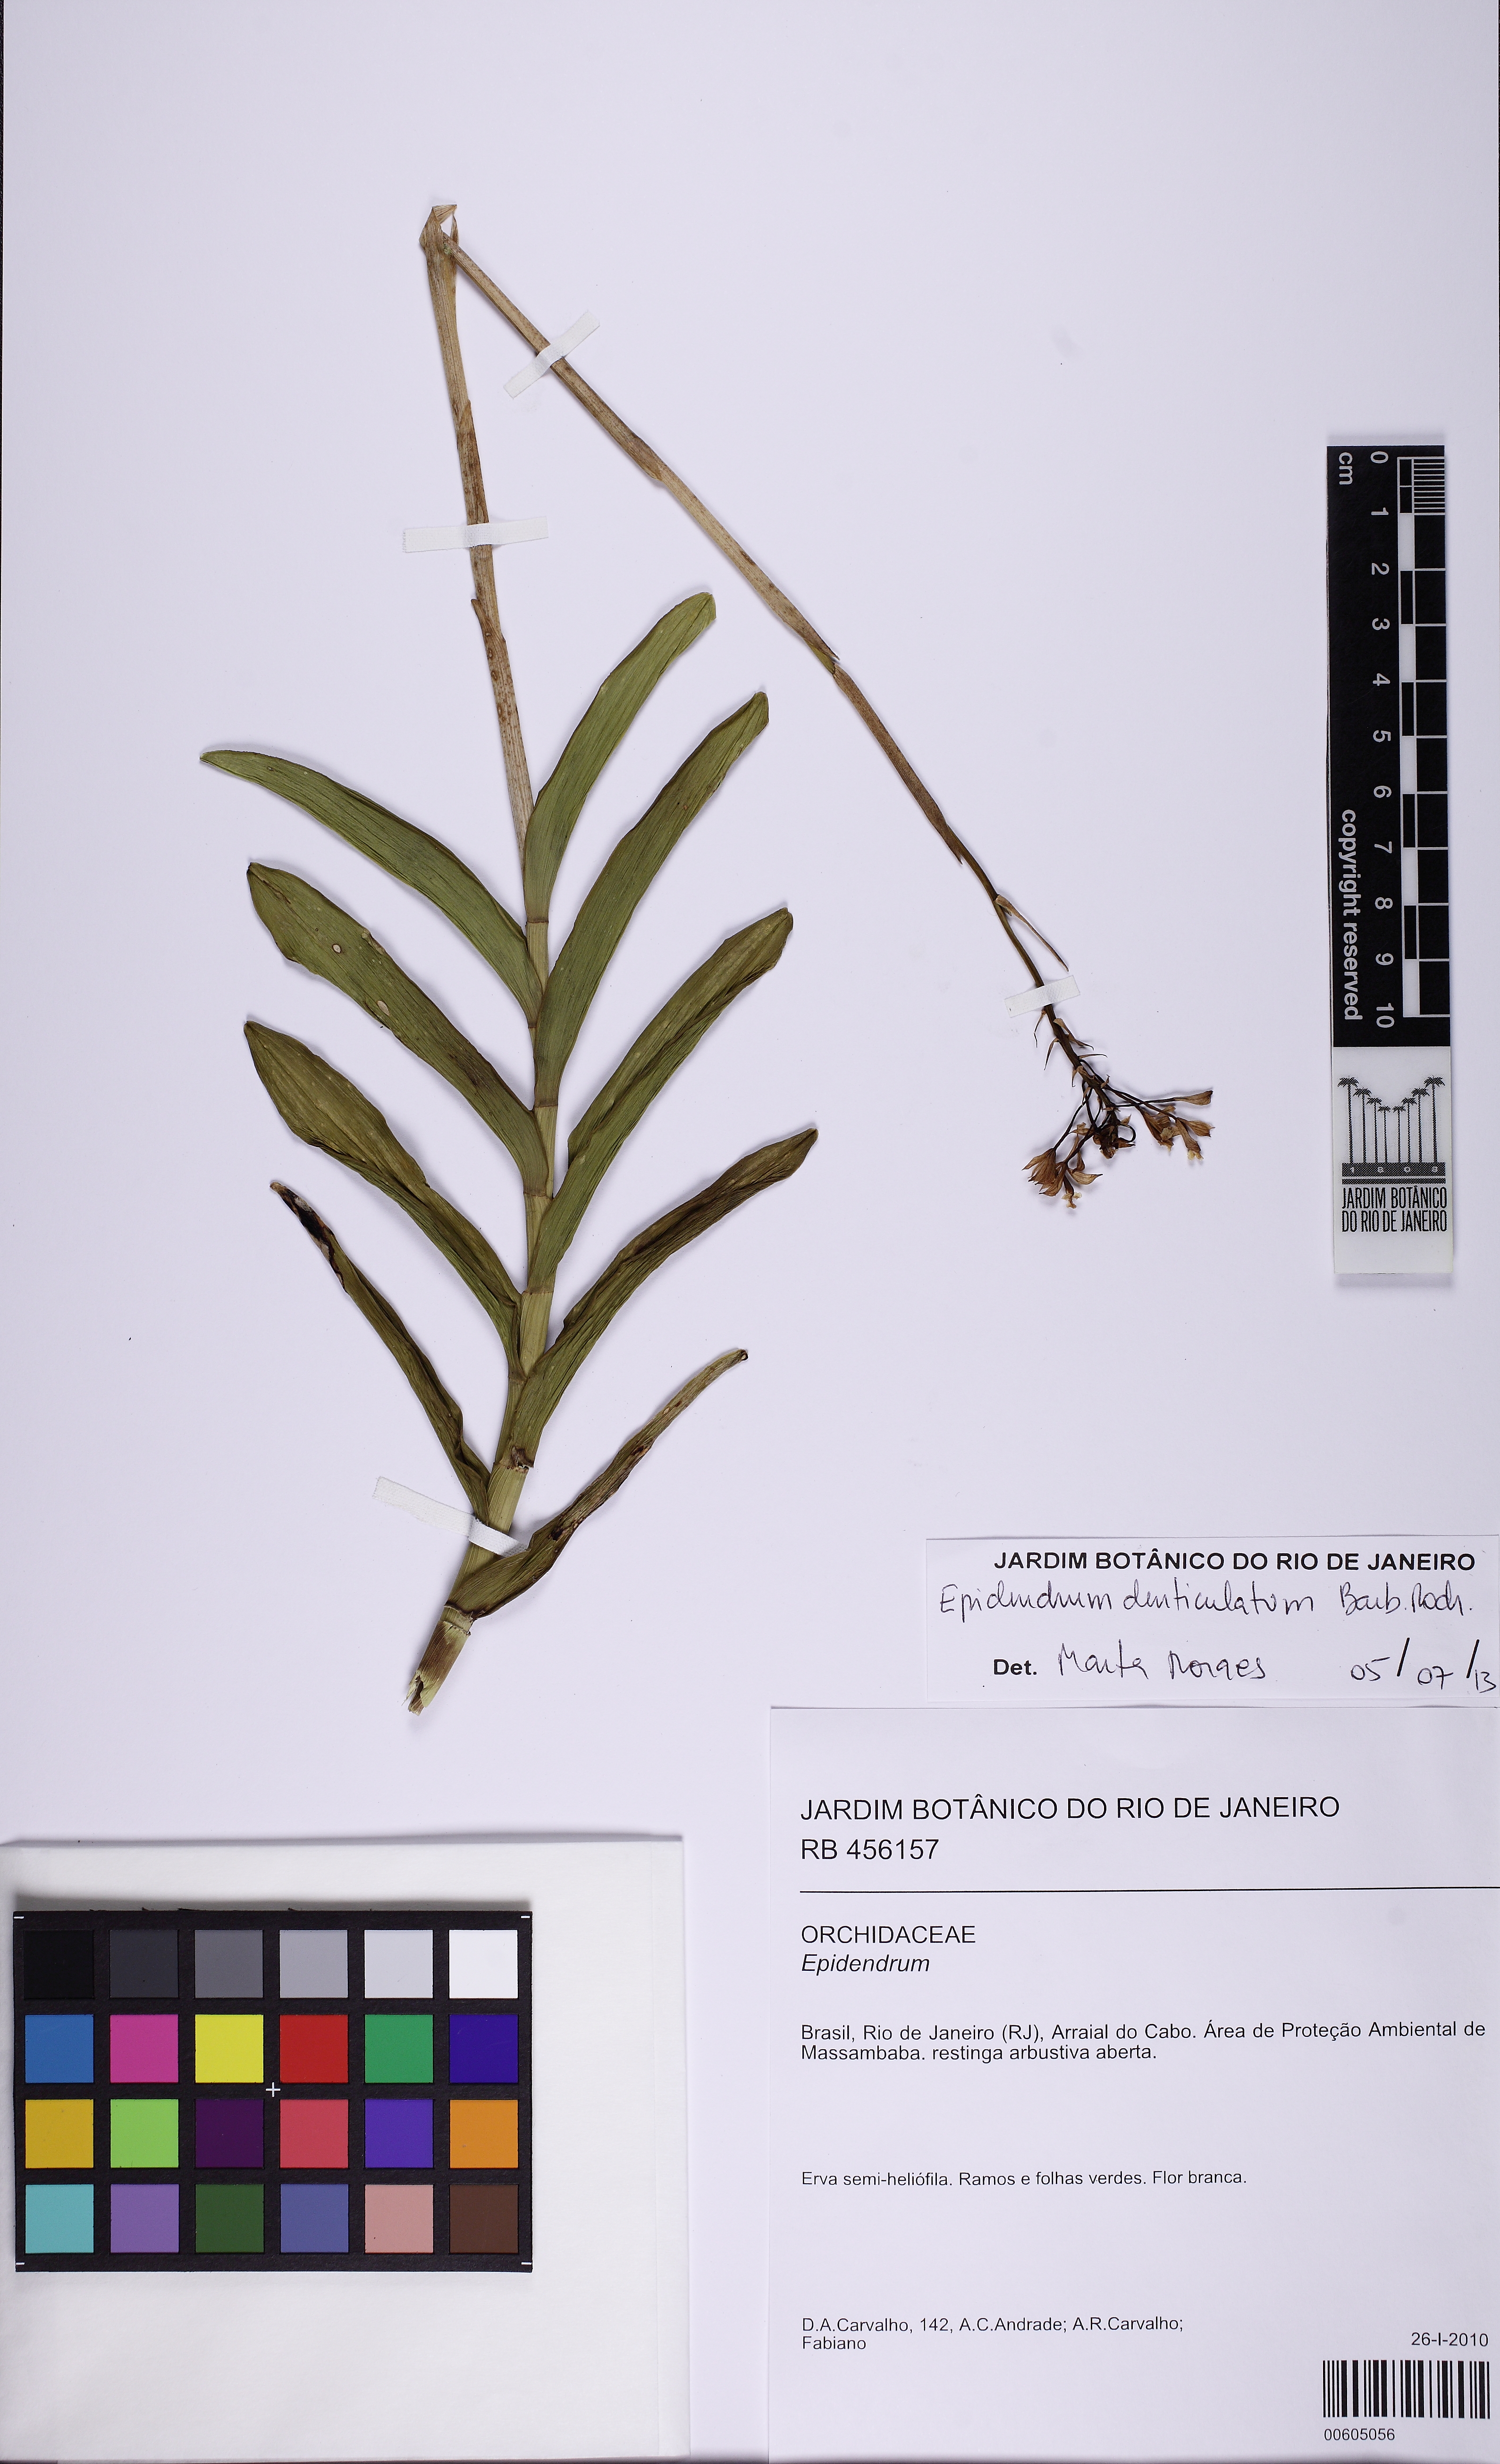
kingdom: Plantae
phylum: Tracheophyta
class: Liliopsida
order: Asparagales
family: Orchidaceae
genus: Epidendrum
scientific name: Epidendrum
